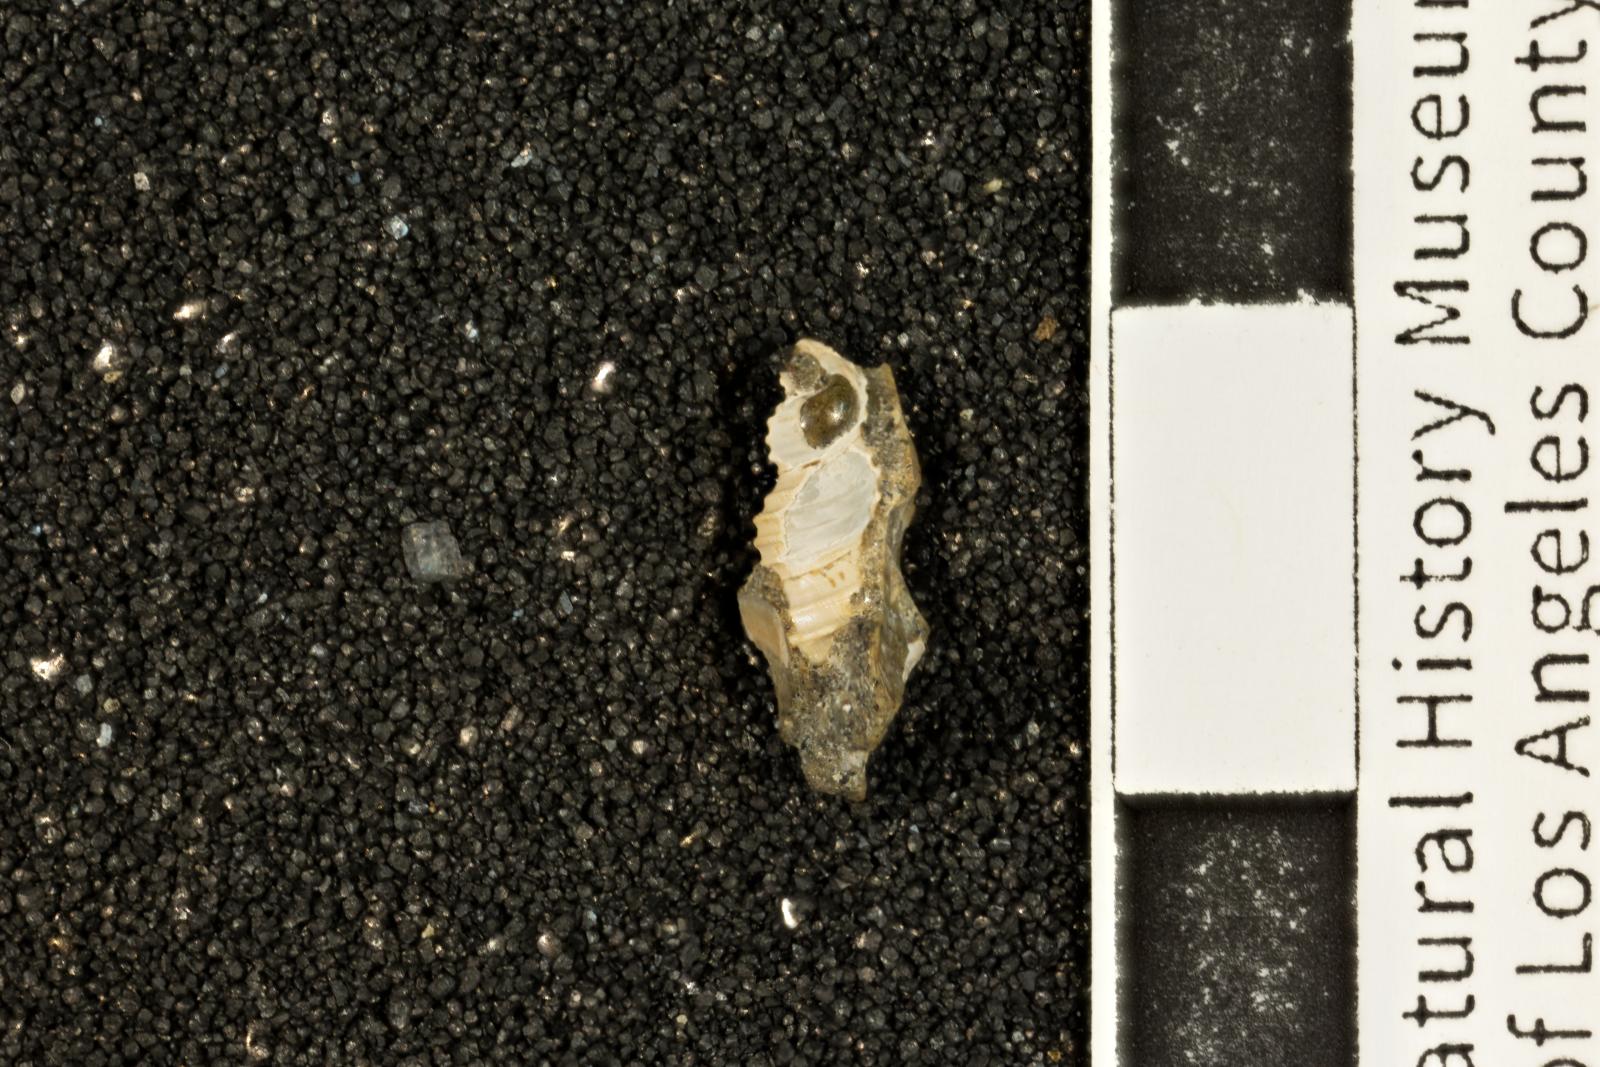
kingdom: Animalia
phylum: Mollusca
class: Gastropoda
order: Littorinimorpha
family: Capulidae
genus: Minytropis
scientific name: Minytropis melilota
